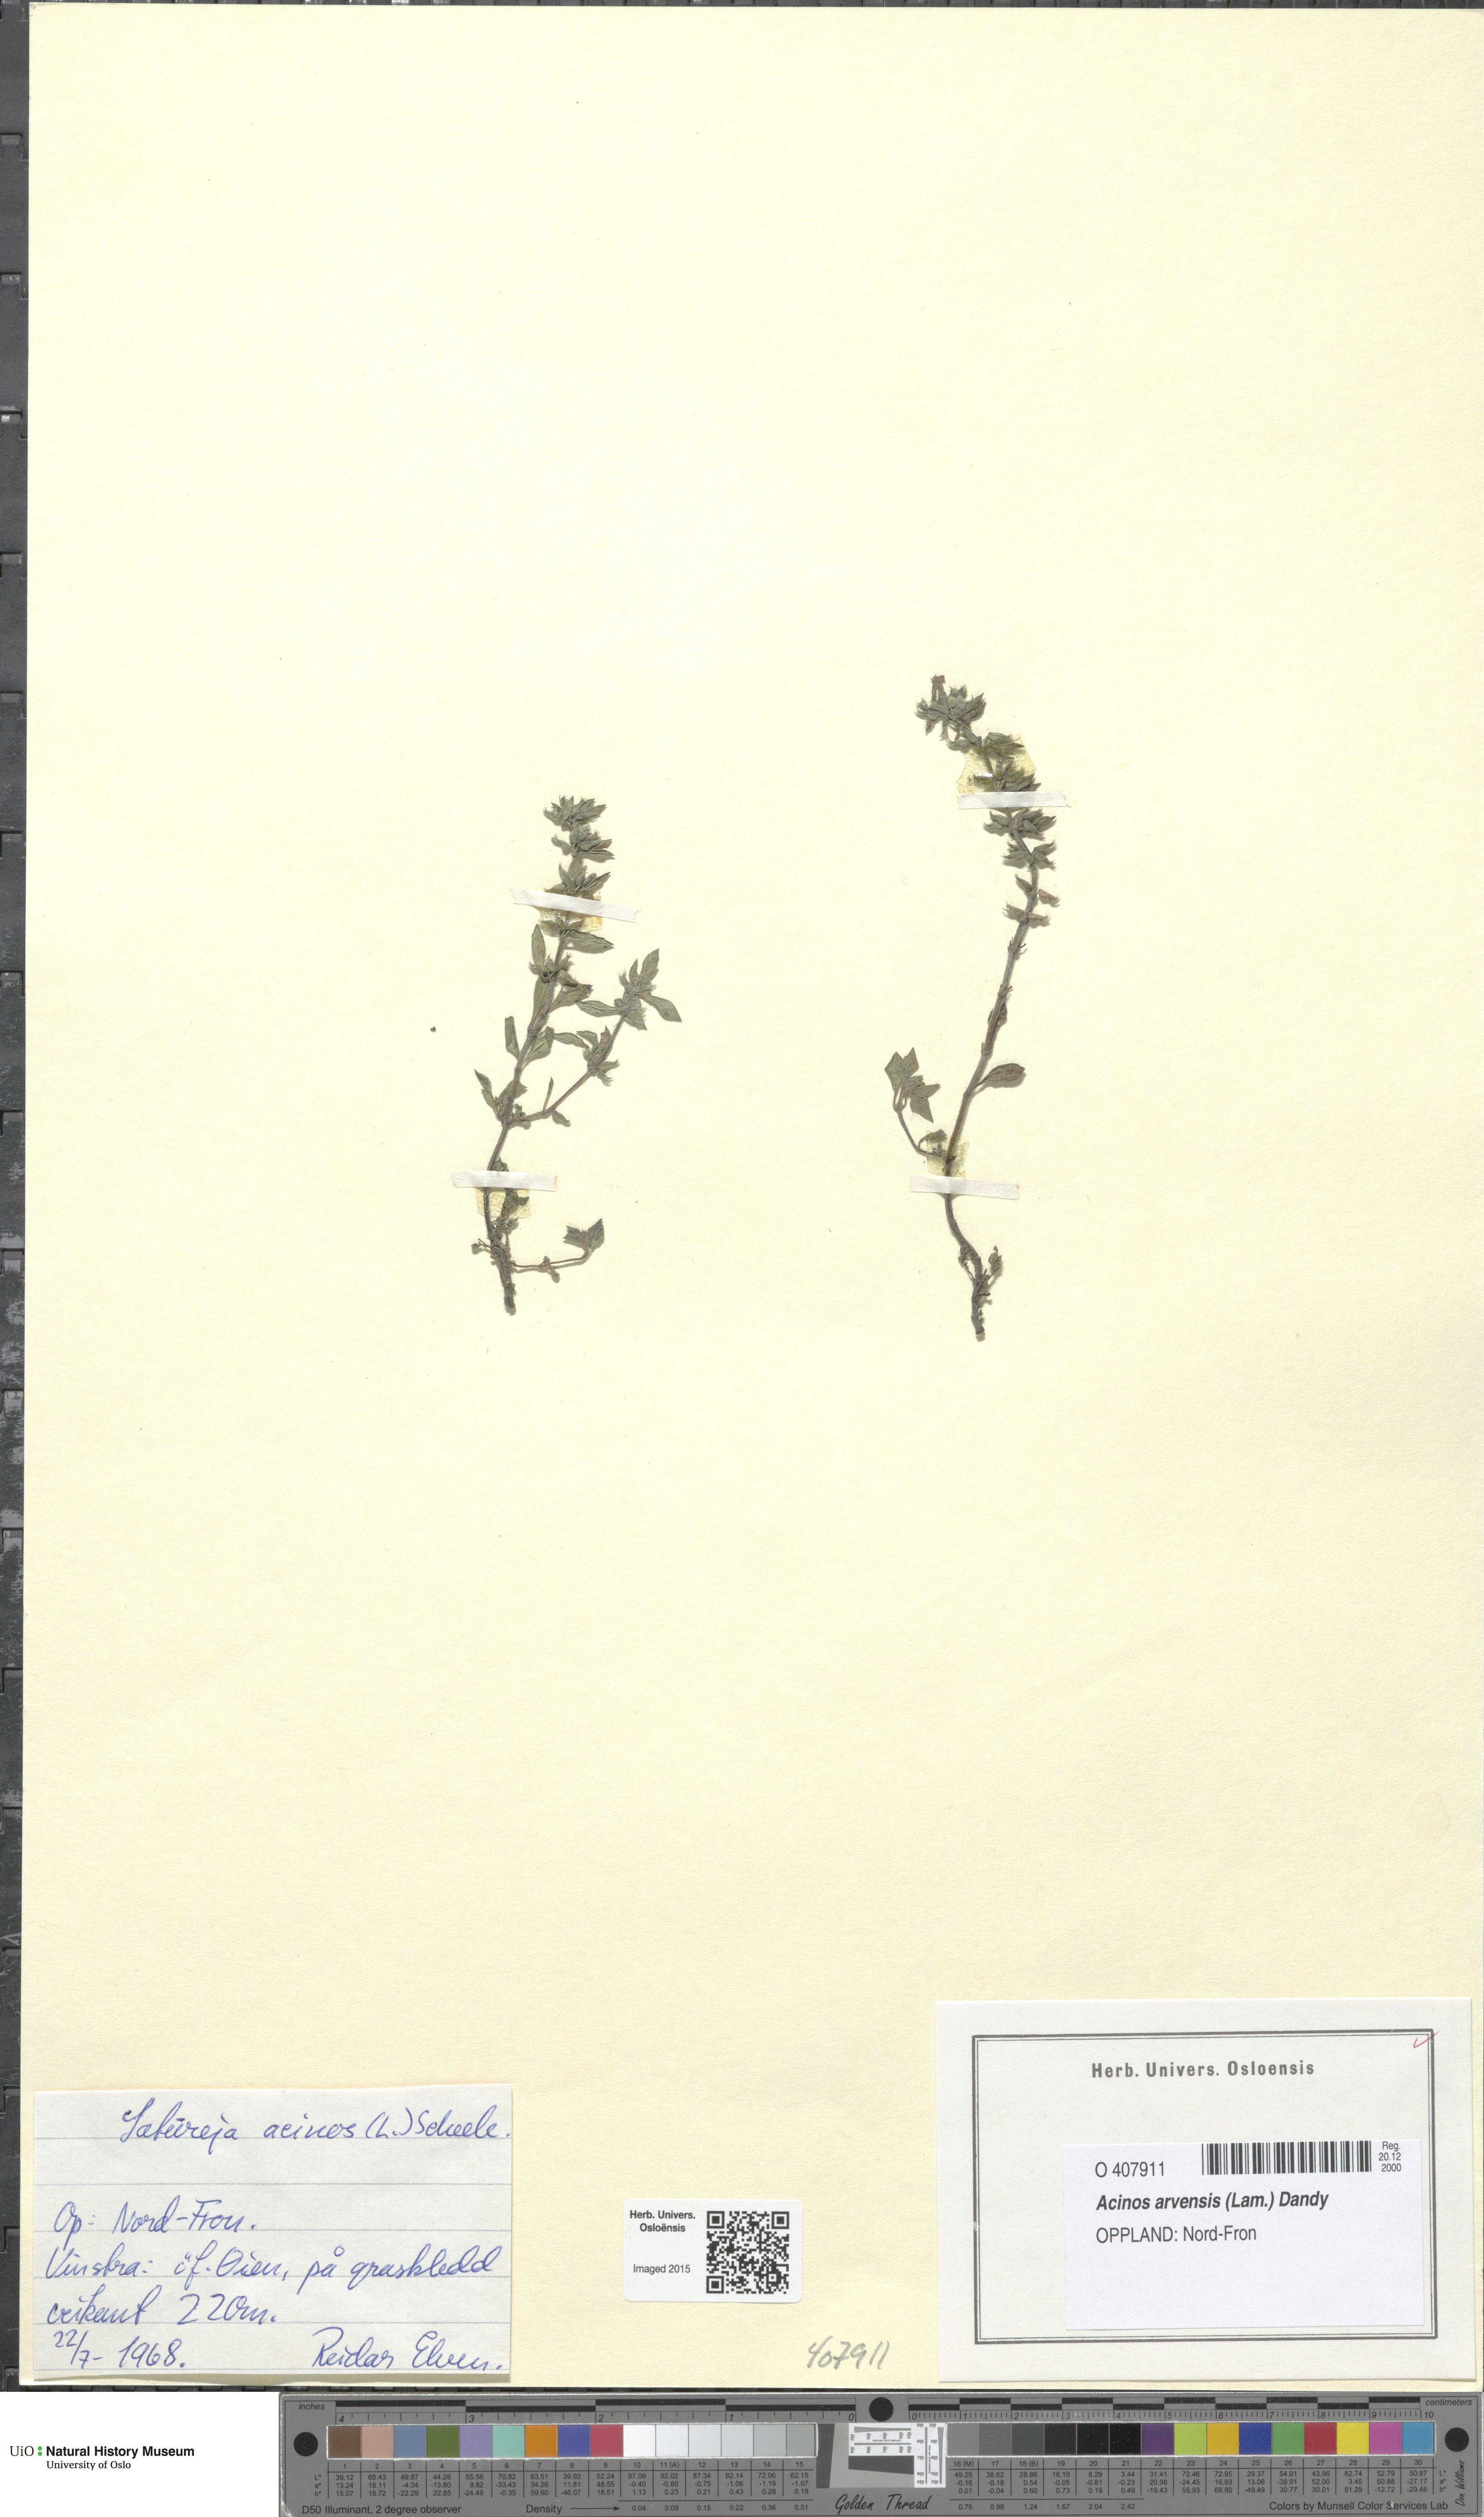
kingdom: Plantae
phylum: Tracheophyta
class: Magnoliopsida
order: Lamiales
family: Lamiaceae
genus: Clinopodium
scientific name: Clinopodium acinos
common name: Basil thyme
